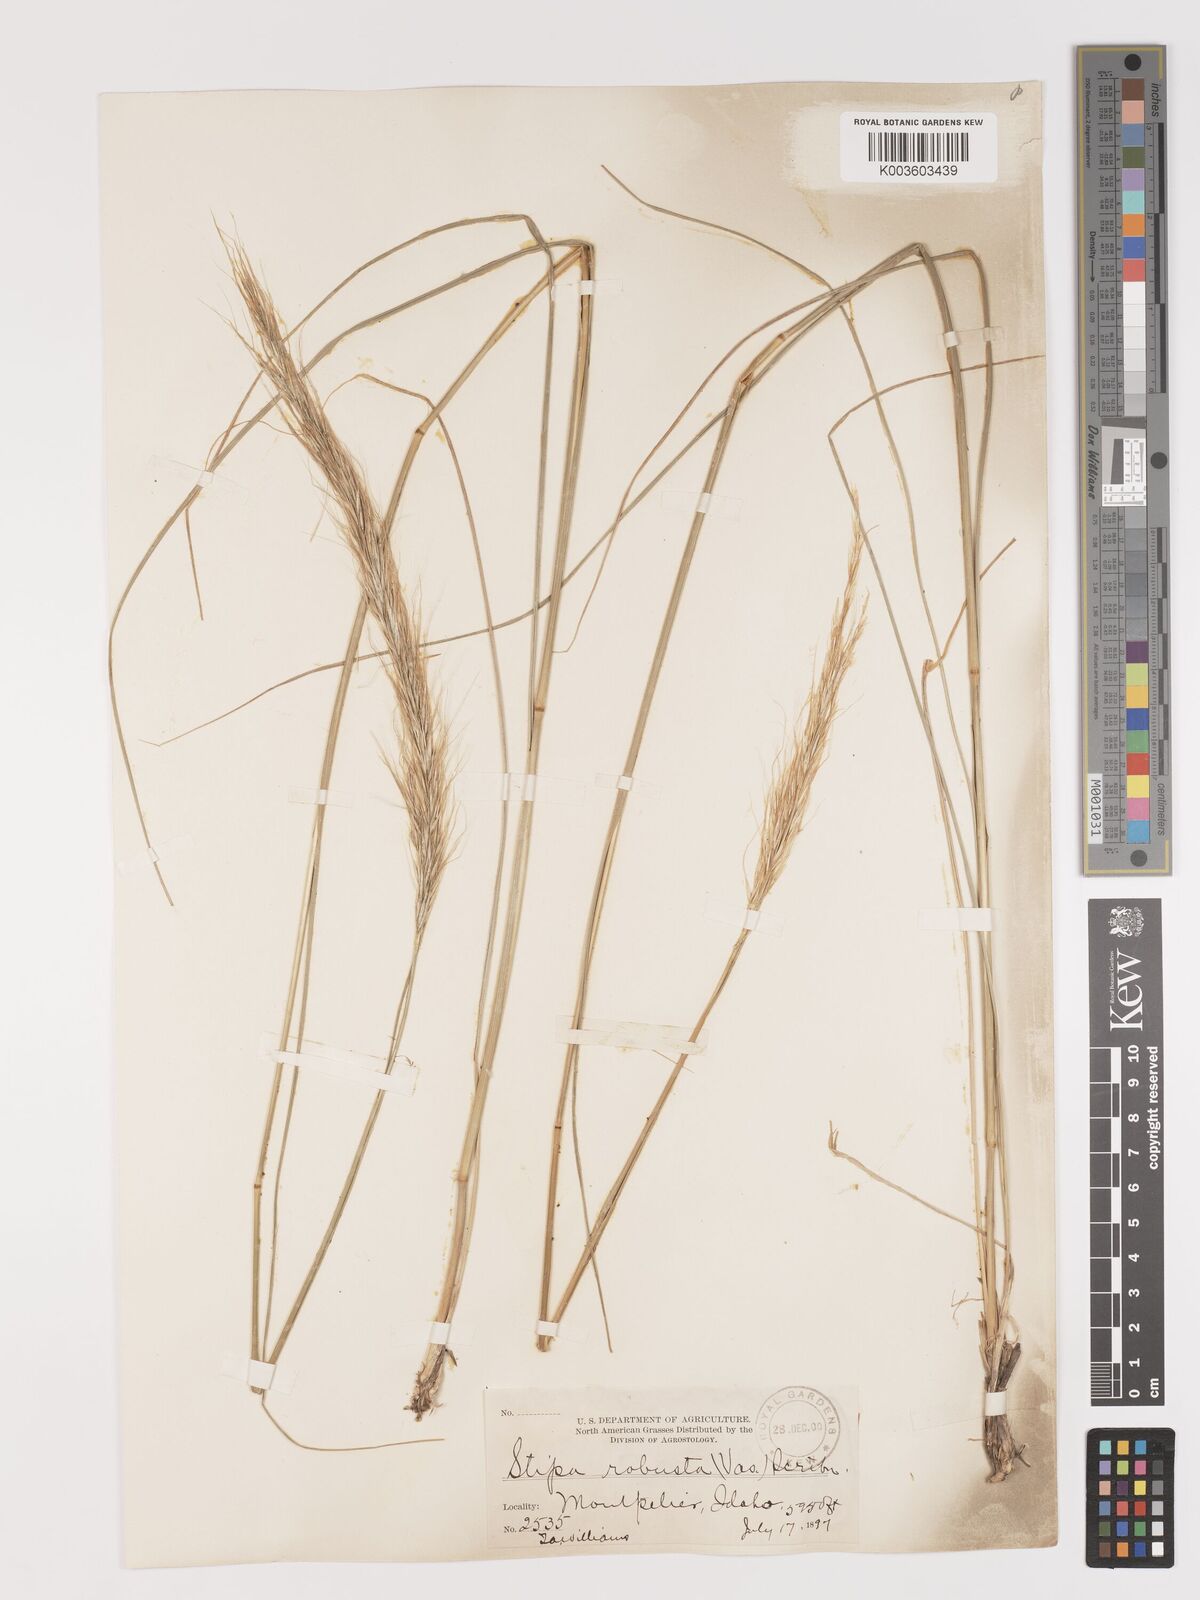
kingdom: Plantae
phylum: Tracheophyta
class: Liliopsida
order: Poales
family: Poaceae
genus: Eriocoma
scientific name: Eriocoma robusta
